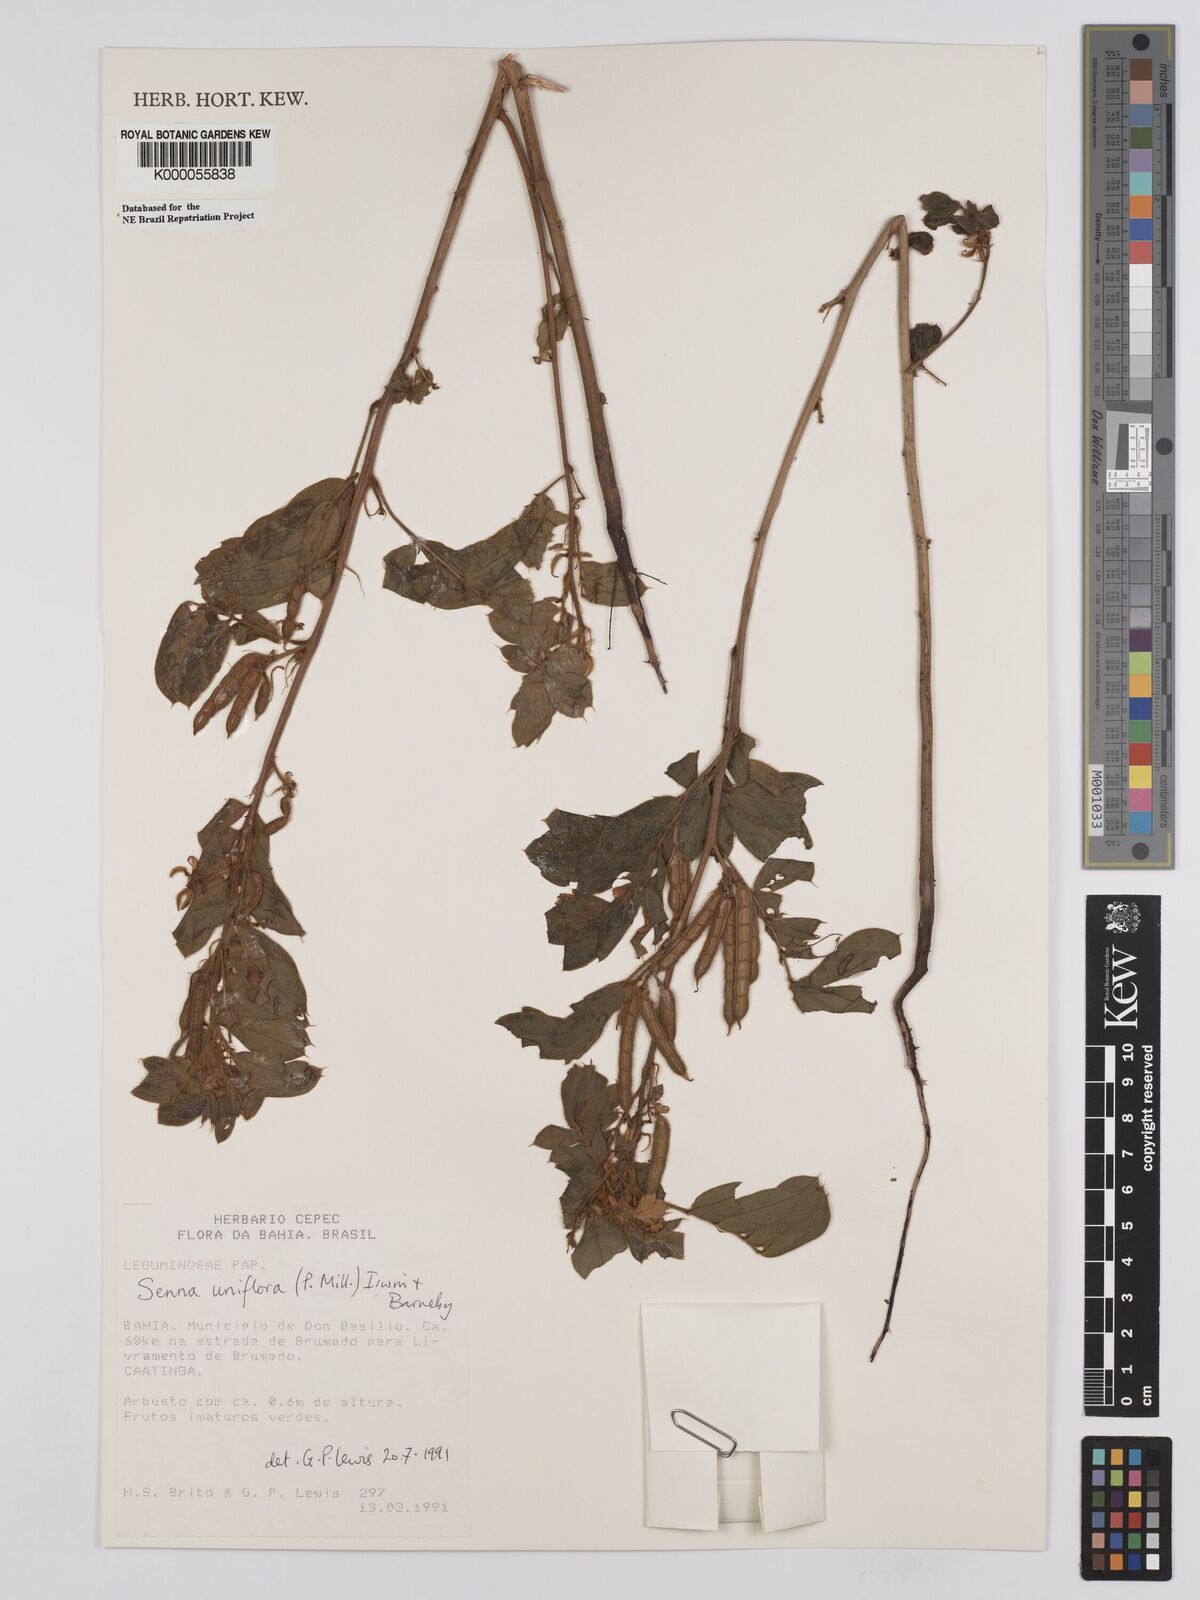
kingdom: Plantae
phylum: Tracheophyta
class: Magnoliopsida
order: Fabales
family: Fabaceae
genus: Senna
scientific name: Senna uniflora
